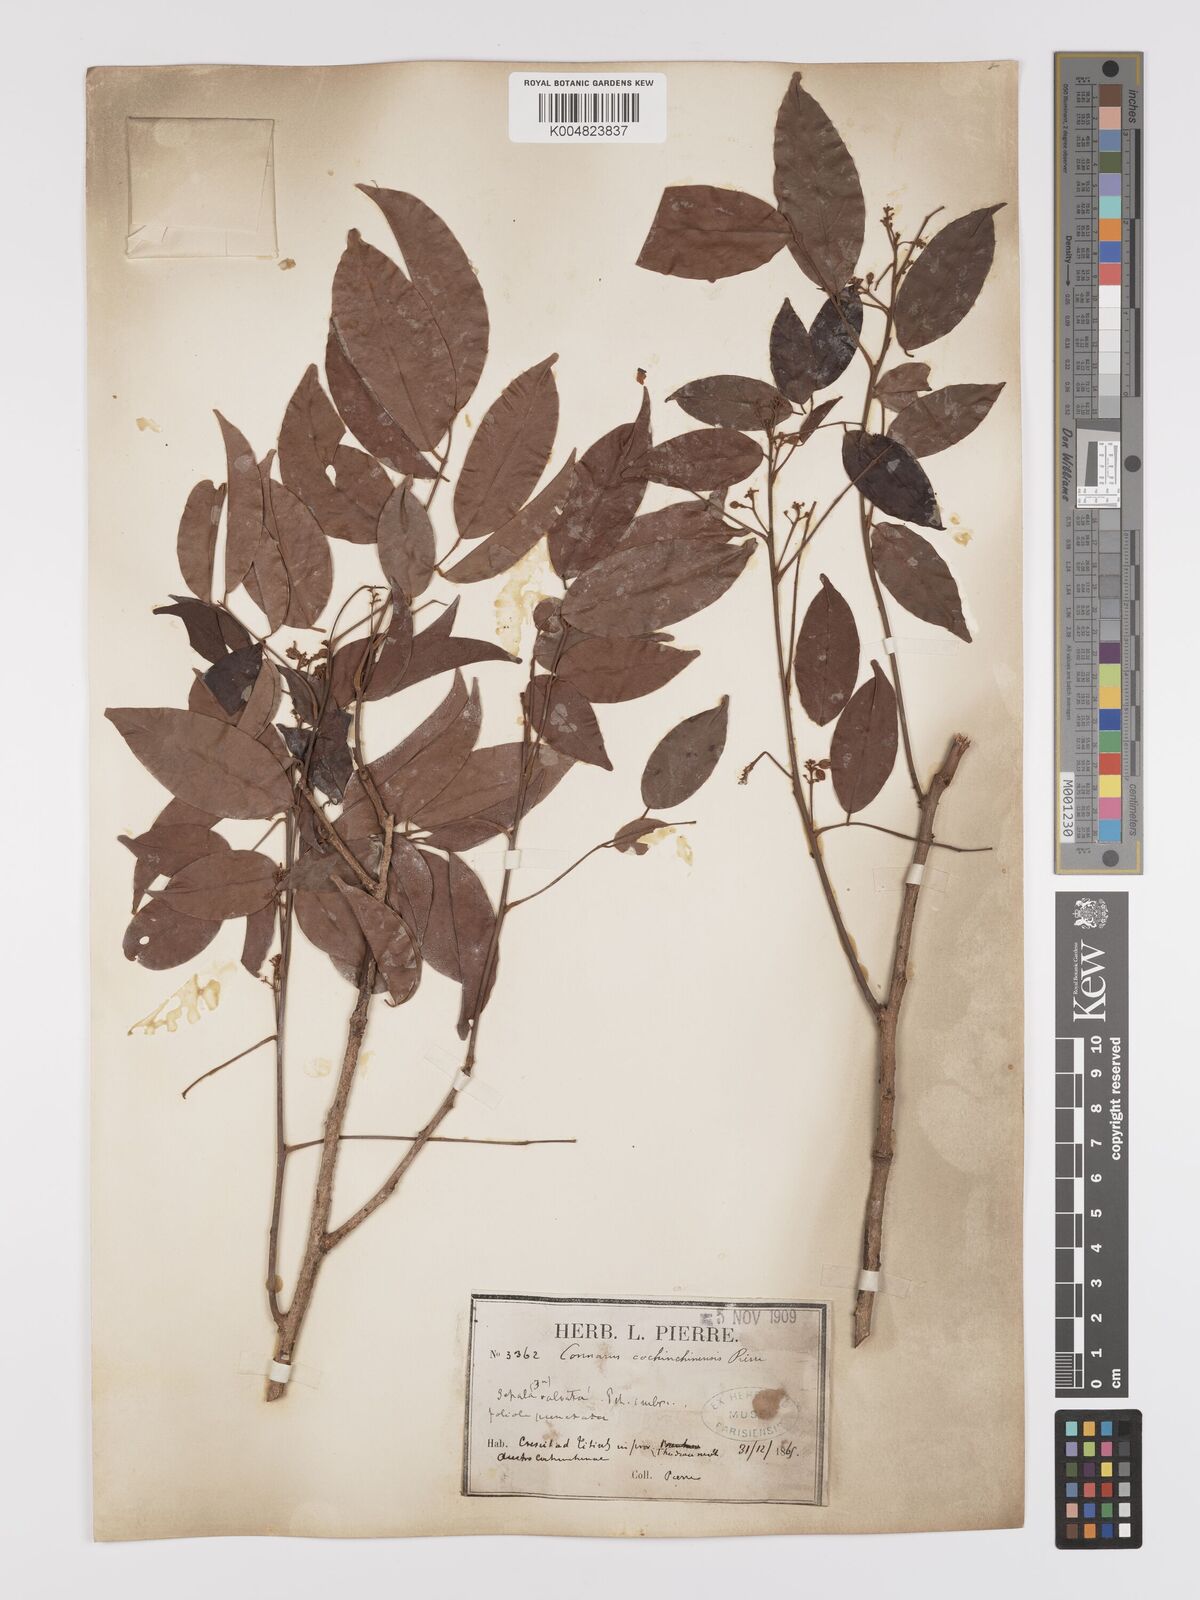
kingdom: Plantae
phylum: Tracheophyta
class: Magnoliopsida
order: Oxalidales
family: Connaraceae
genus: Connarus
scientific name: Connarus cochinchinensis
